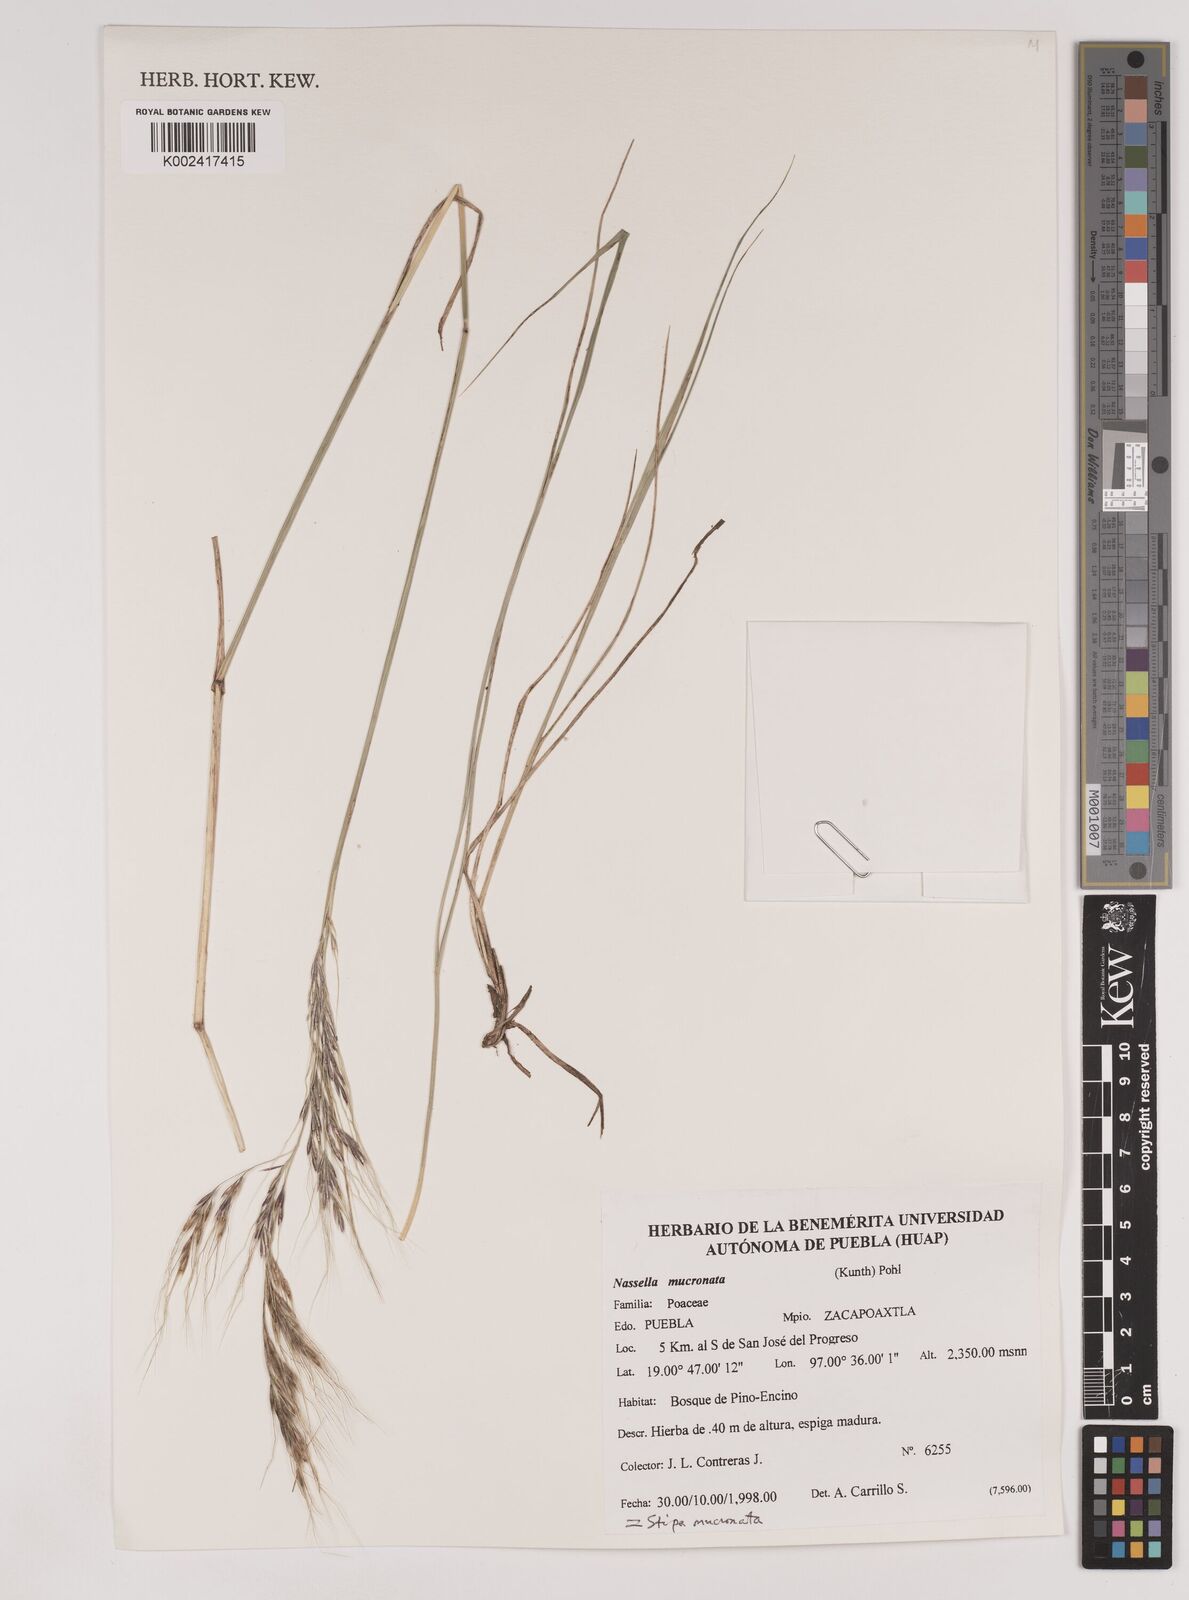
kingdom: Plantae
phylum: Tracheophyta
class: Liliopsida
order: Poales
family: Poaceae
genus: Nassella
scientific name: Nassella mucronata
